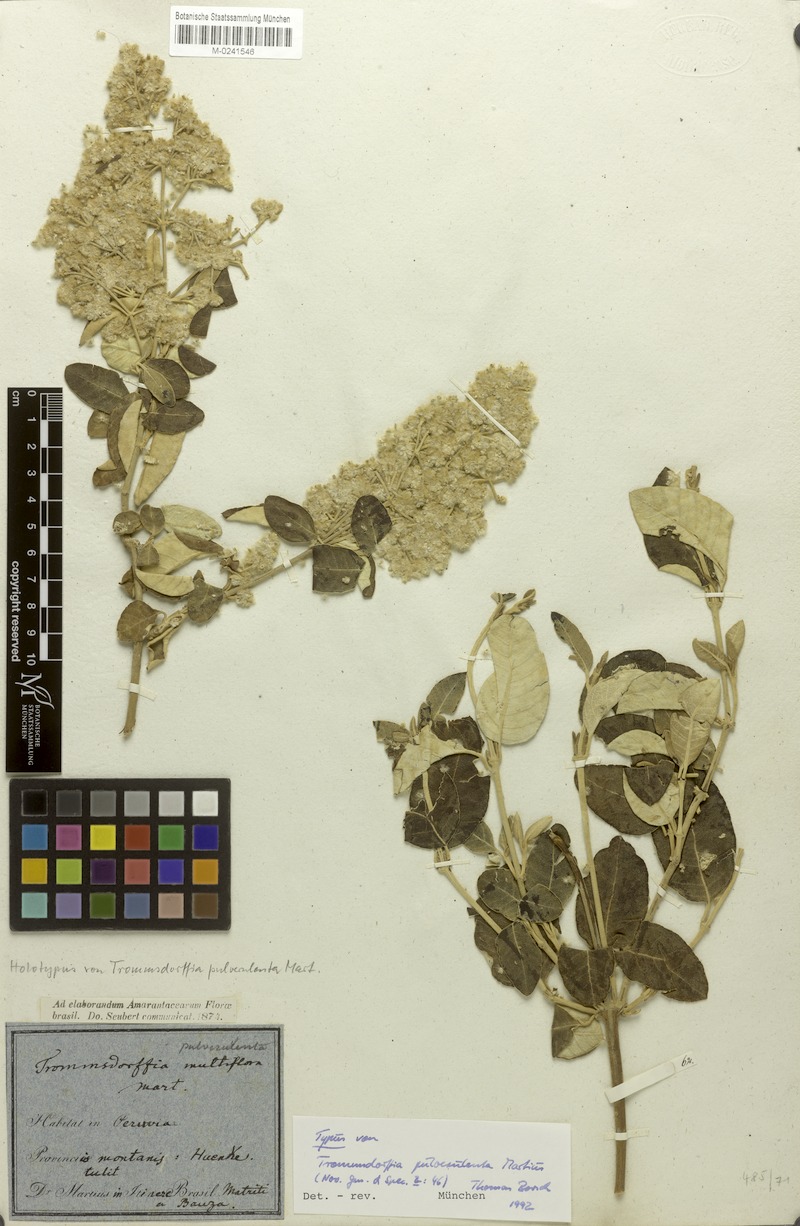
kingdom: Plantae
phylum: Tracheophyta
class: Magnoliopsida
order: Caryophyllales
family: Amaranthaceae
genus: Pfaffia
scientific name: Pfaffia densipellita
